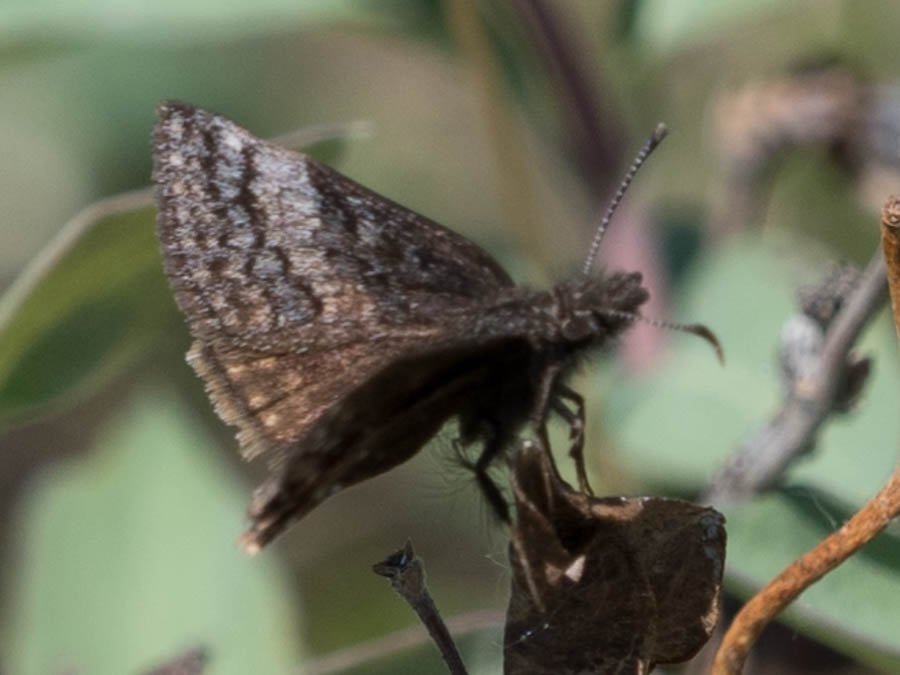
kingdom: Animalia
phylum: Arthropoda
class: Insecta
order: Lepidoptera
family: Hesperiidae
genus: Erynnis
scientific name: Erynnis icelus
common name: Dreamy Duskywing
